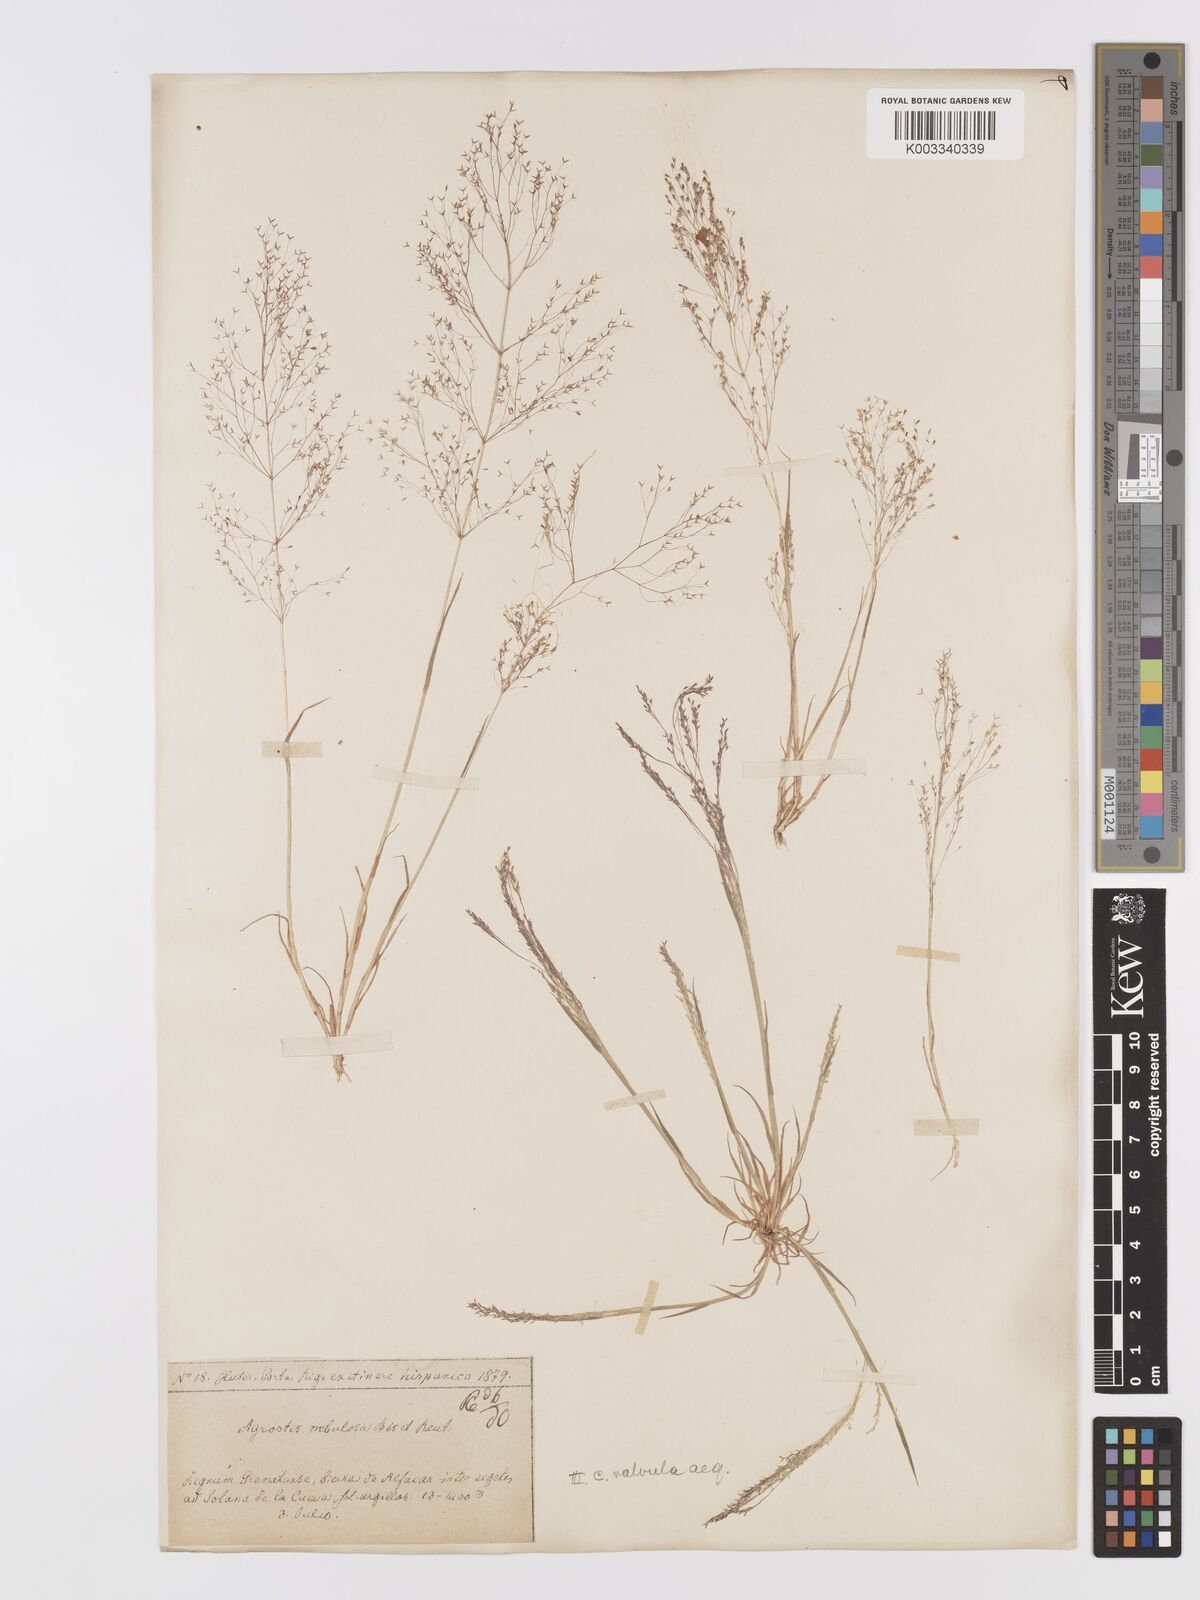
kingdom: Plantae
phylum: Tracheophyta
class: Liliopsida
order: Poales
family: Poaceae
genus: Agrostis
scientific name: Agrostis nebulosa
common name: Cloud grass
